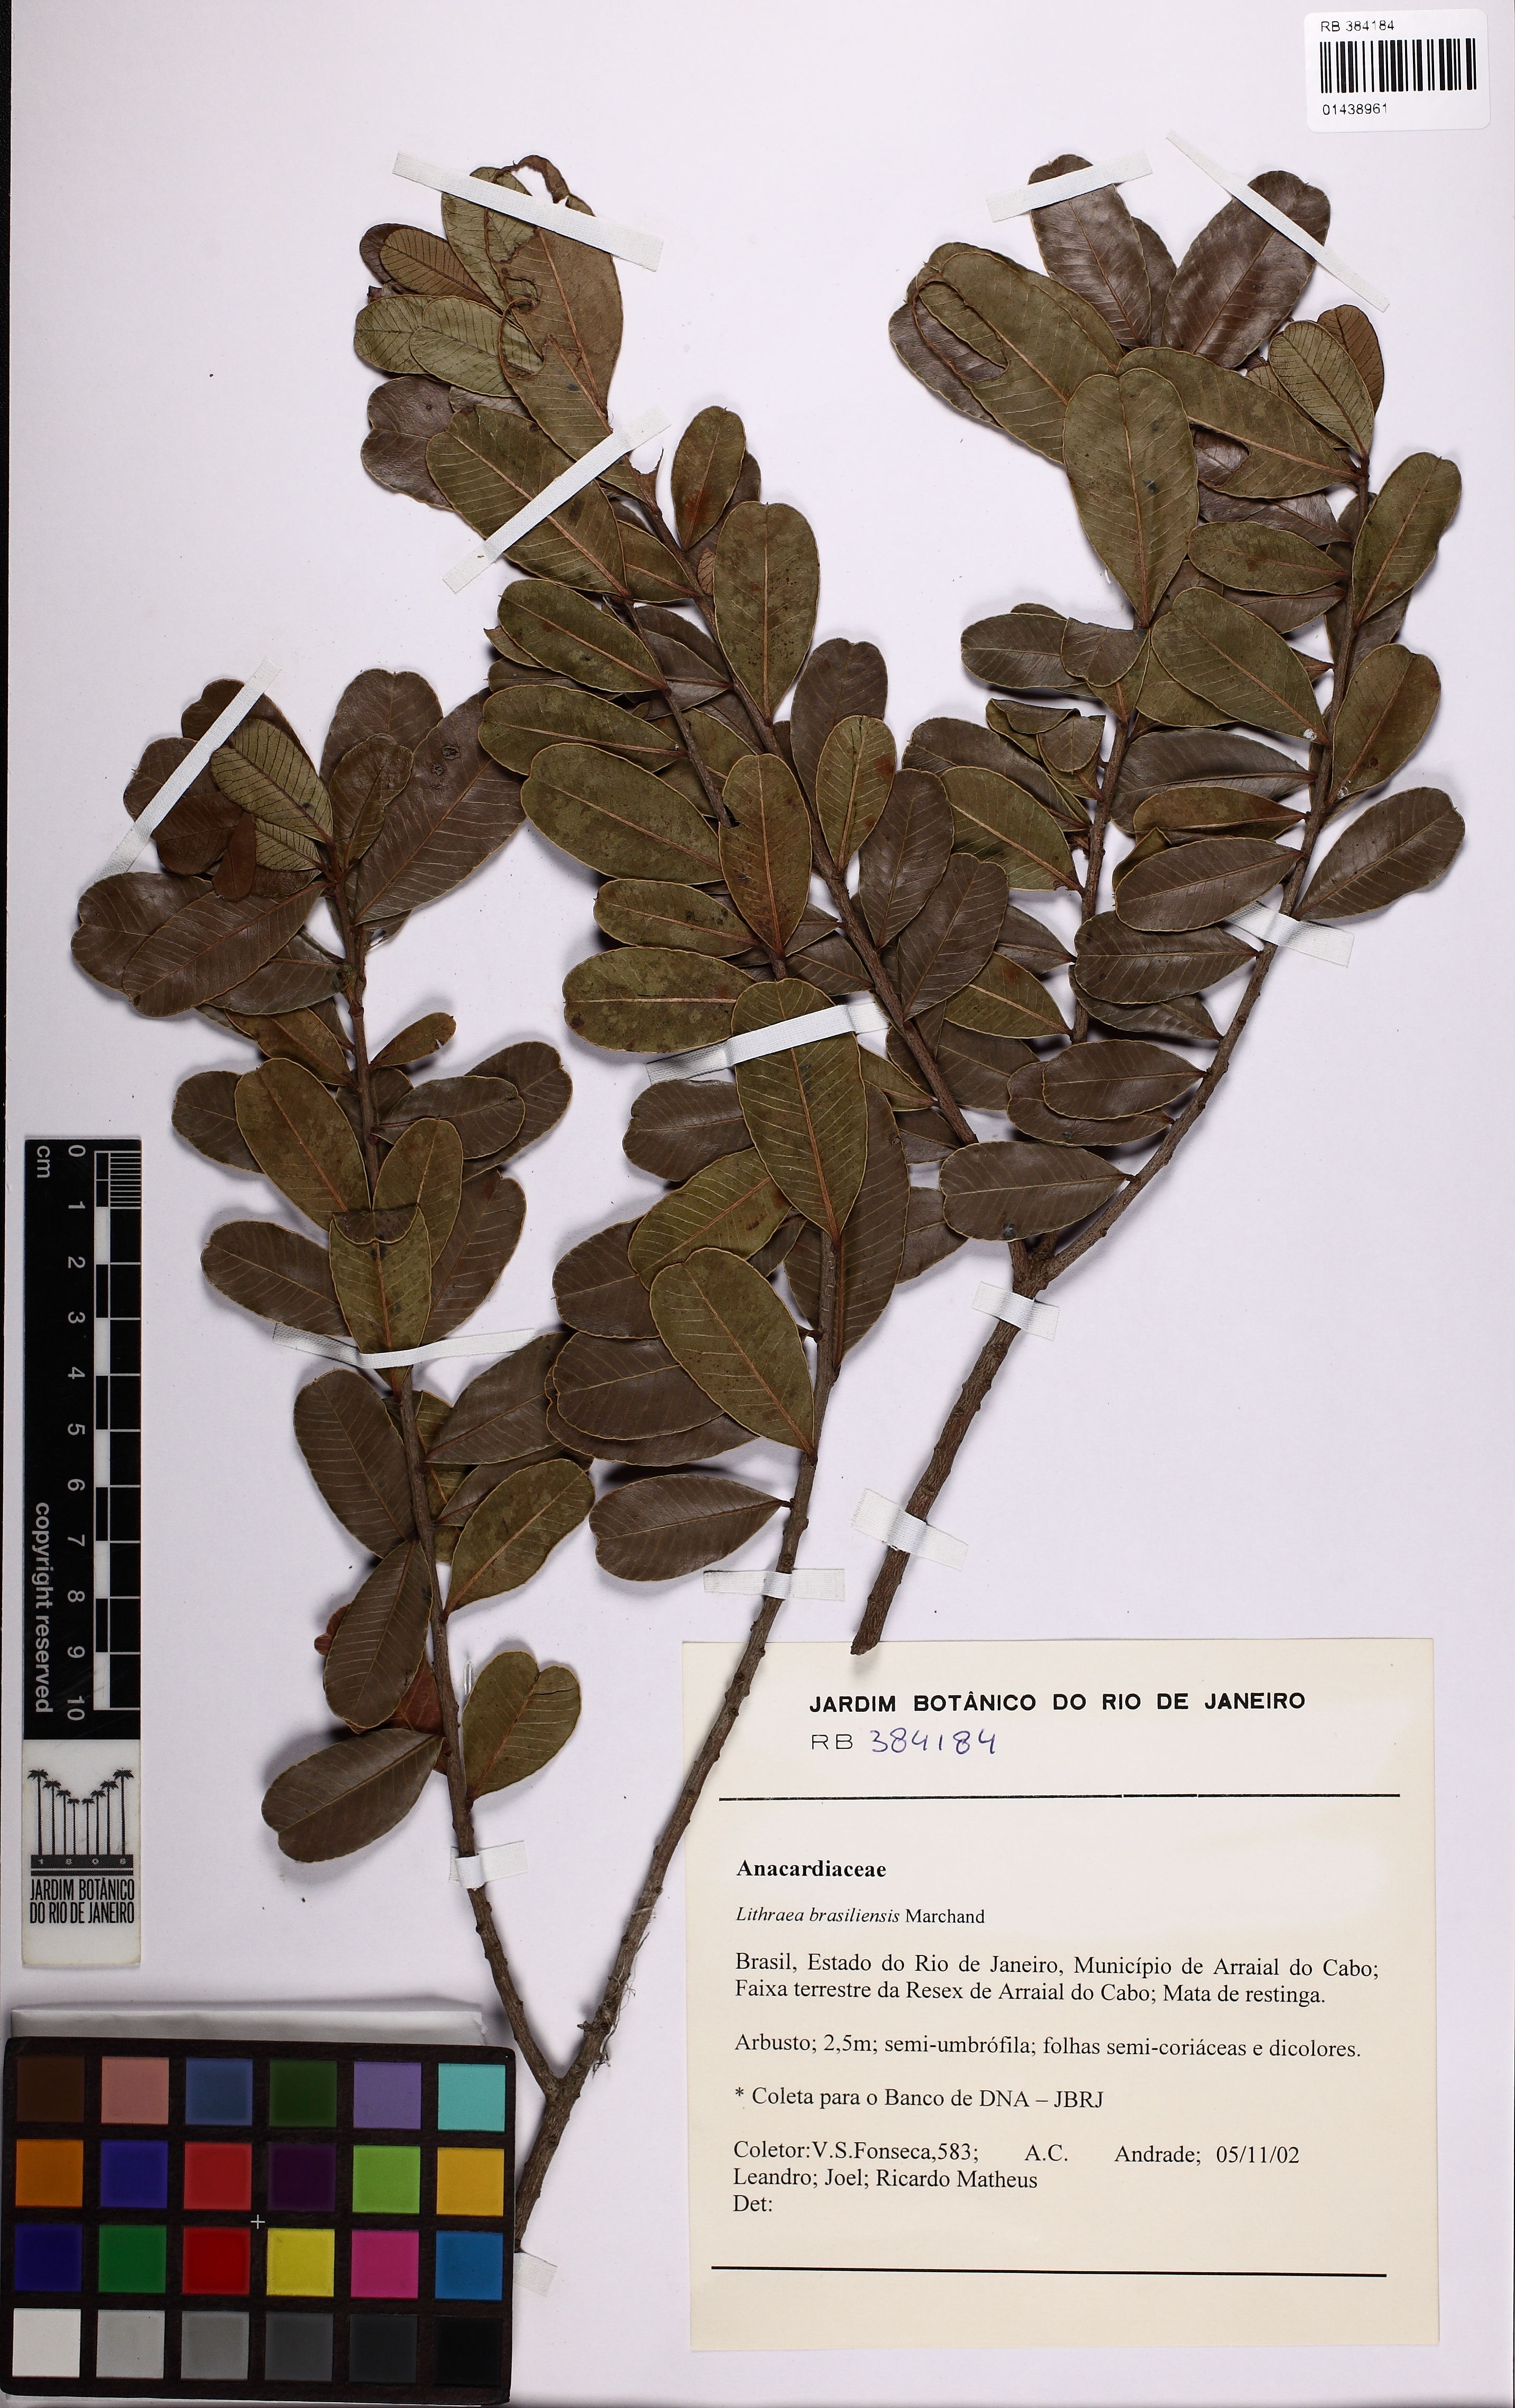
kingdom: Plantae
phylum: Tracheophyta
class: Magnoliopsida
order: Sapindales
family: Anacardiaceae
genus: Lithraea
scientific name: Lithraea brasiliensis
